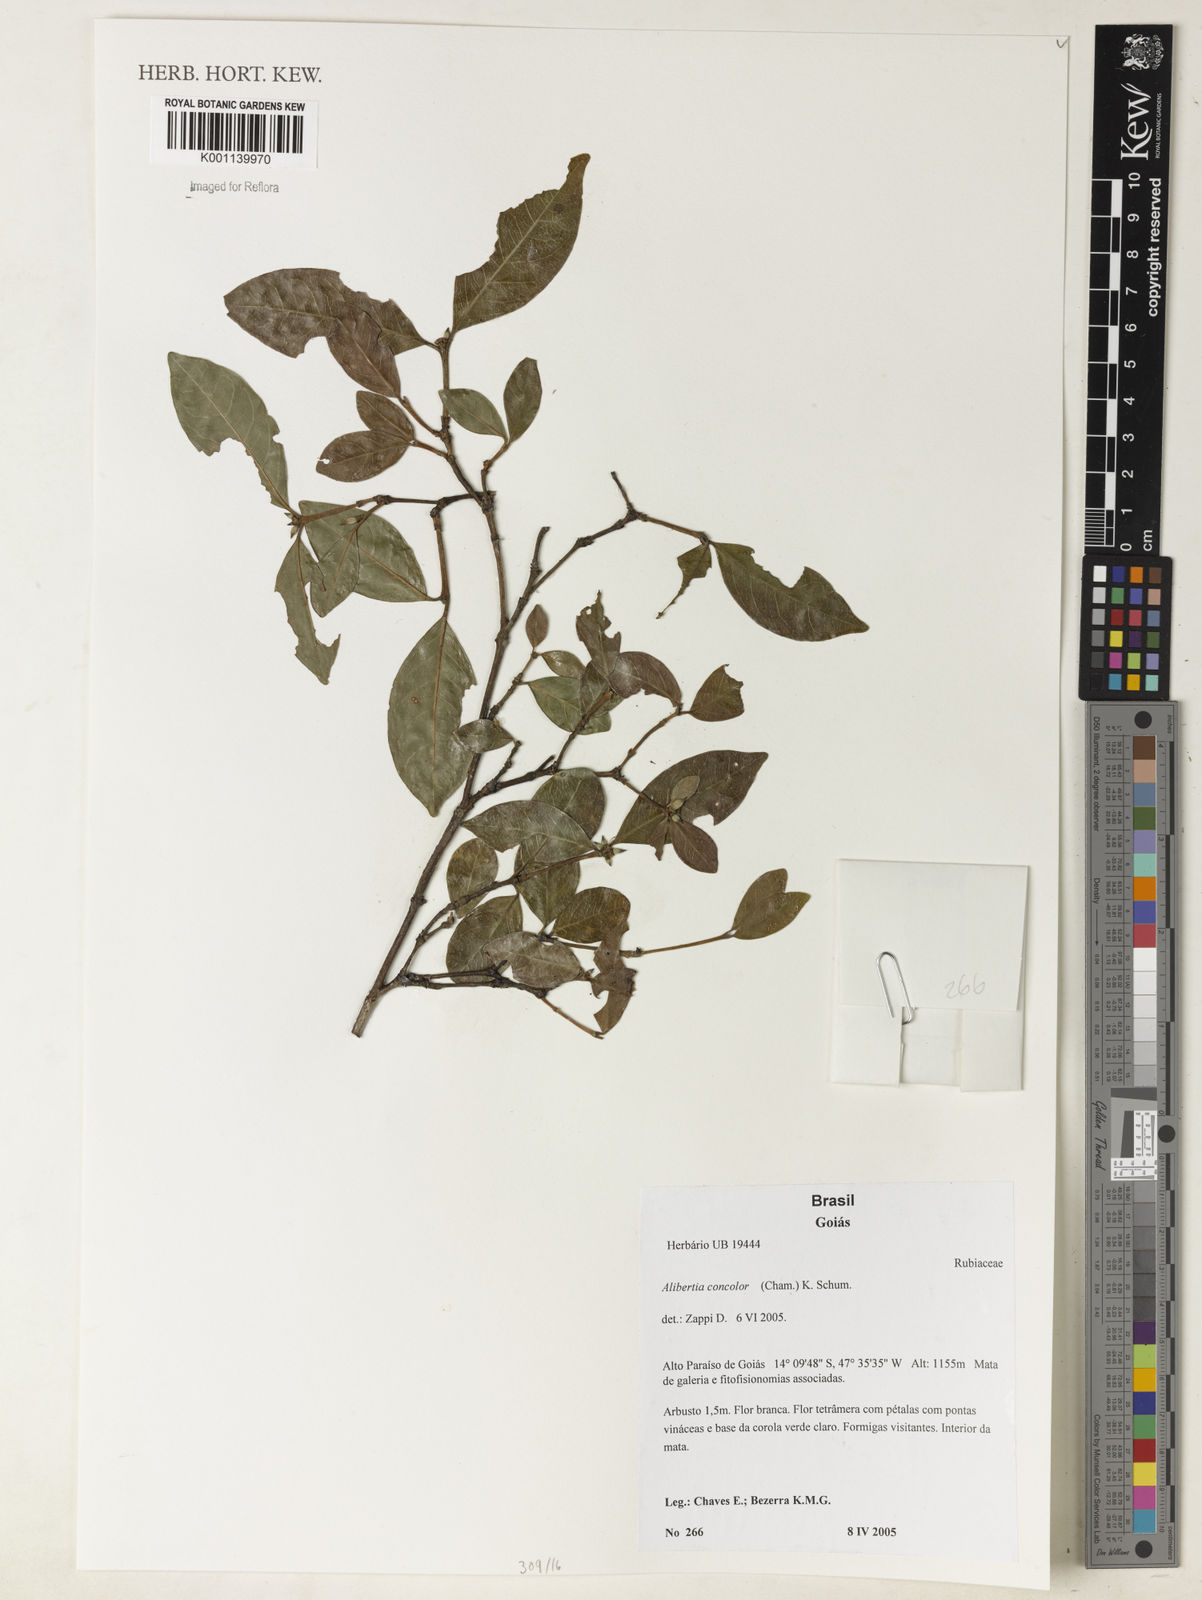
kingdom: Plantae
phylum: Tracheophyta
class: Magnoliopsida
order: Gentianales
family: Rubiaceae
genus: Cordiera
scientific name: Cordiera concolor
